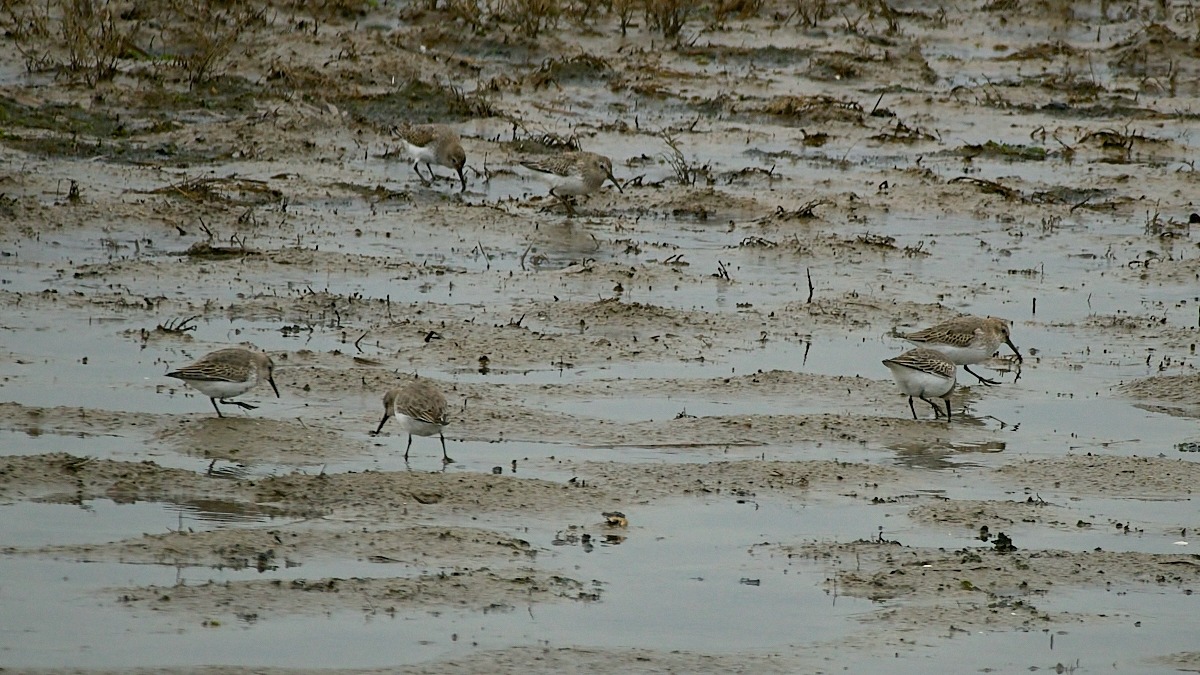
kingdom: Animalia
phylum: Chordata
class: Aves
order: Charadriiformes
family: Scolopacidae
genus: Calidris
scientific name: Calidris alpina
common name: Almindelig ryle
